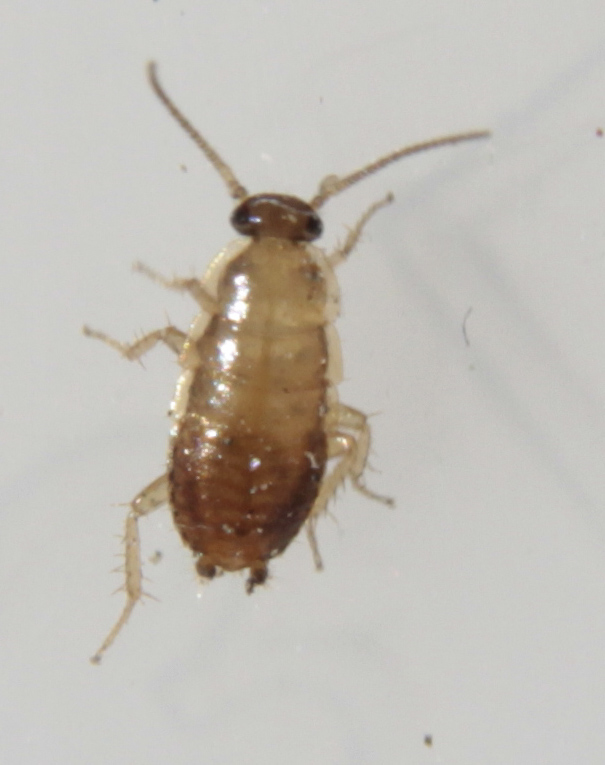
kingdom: Animalia
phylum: Arthropoda
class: Insecta
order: Blattodea
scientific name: Blattodea
